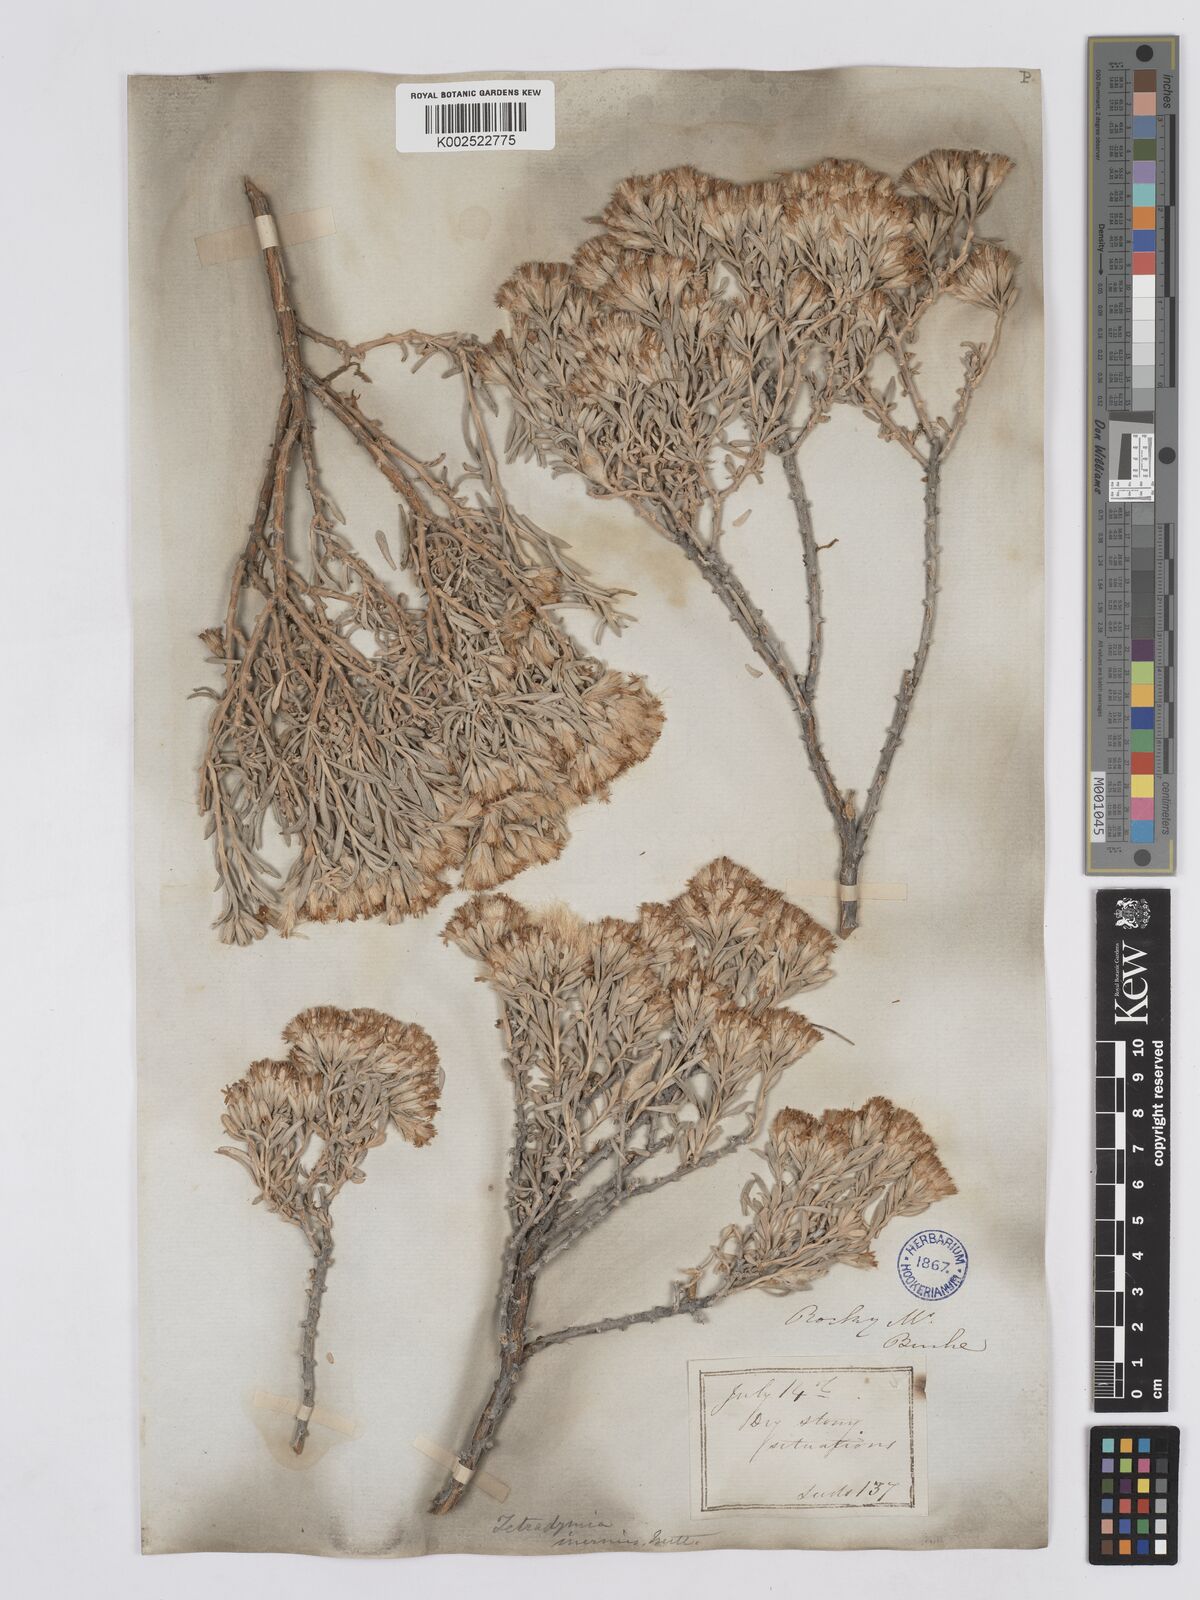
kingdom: Plantae
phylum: Tracheophyta
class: Magnoliopsida
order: Asterales
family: Asteraceae
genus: Tetradymia
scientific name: Tetradymia canescens
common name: Spineless horsebrush
